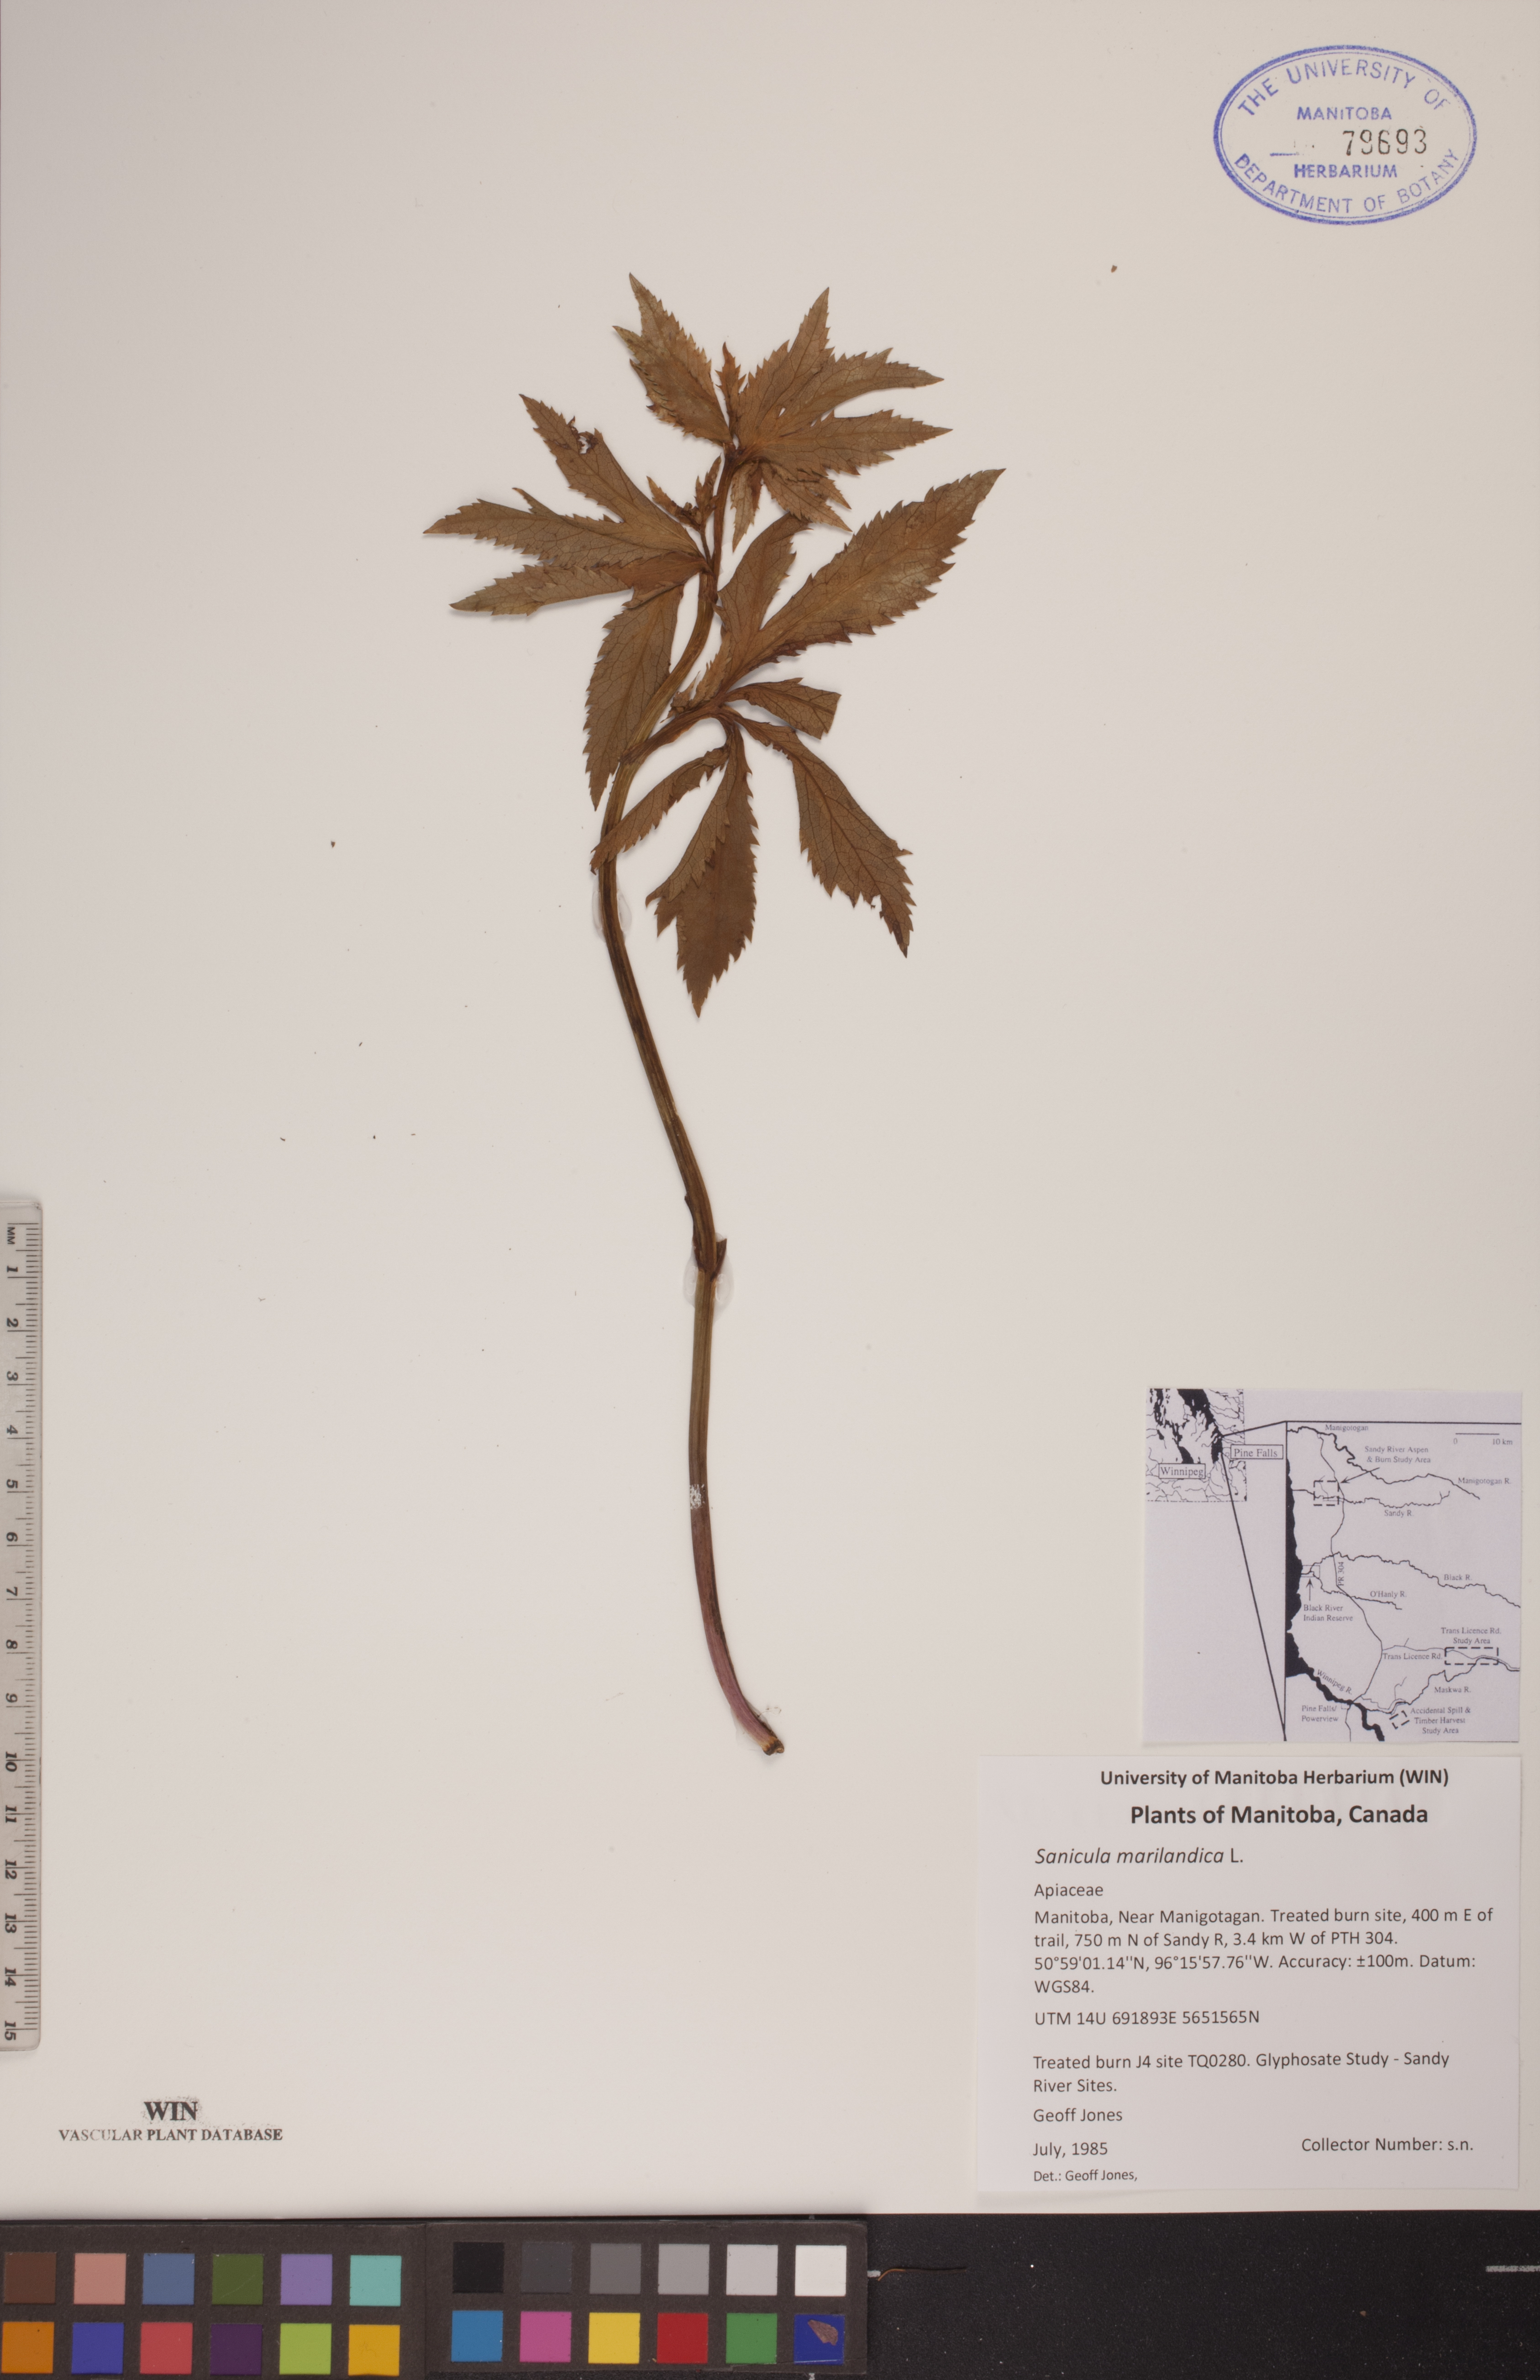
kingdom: Plantae
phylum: Tracheophyta
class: Magnoliopsida
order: Apiales
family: Apiaceae
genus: Sanicula
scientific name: Sanicula marilandica
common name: Black snakeroot
